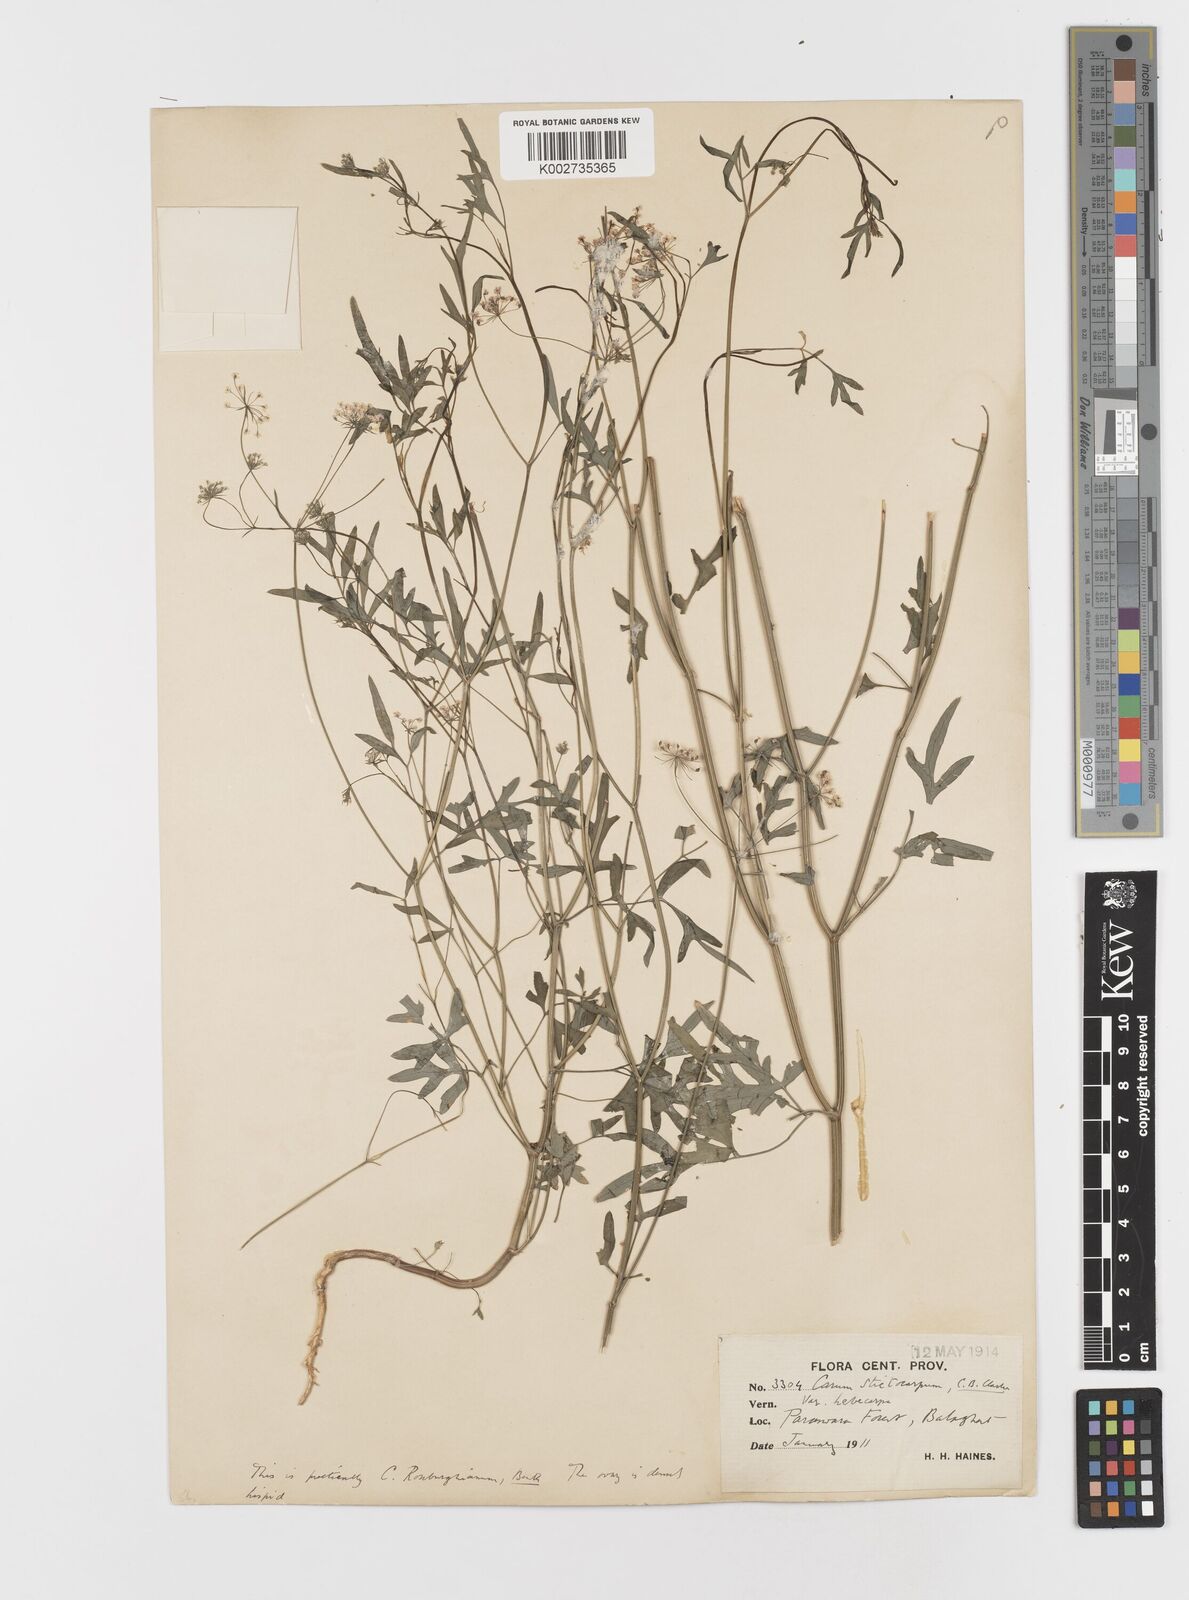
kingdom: Plantae
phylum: Tracheophyta
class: Magnoliopsida
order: Apiales
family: Apiaceae
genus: Psammogeton
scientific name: Psammogeton involucratum
